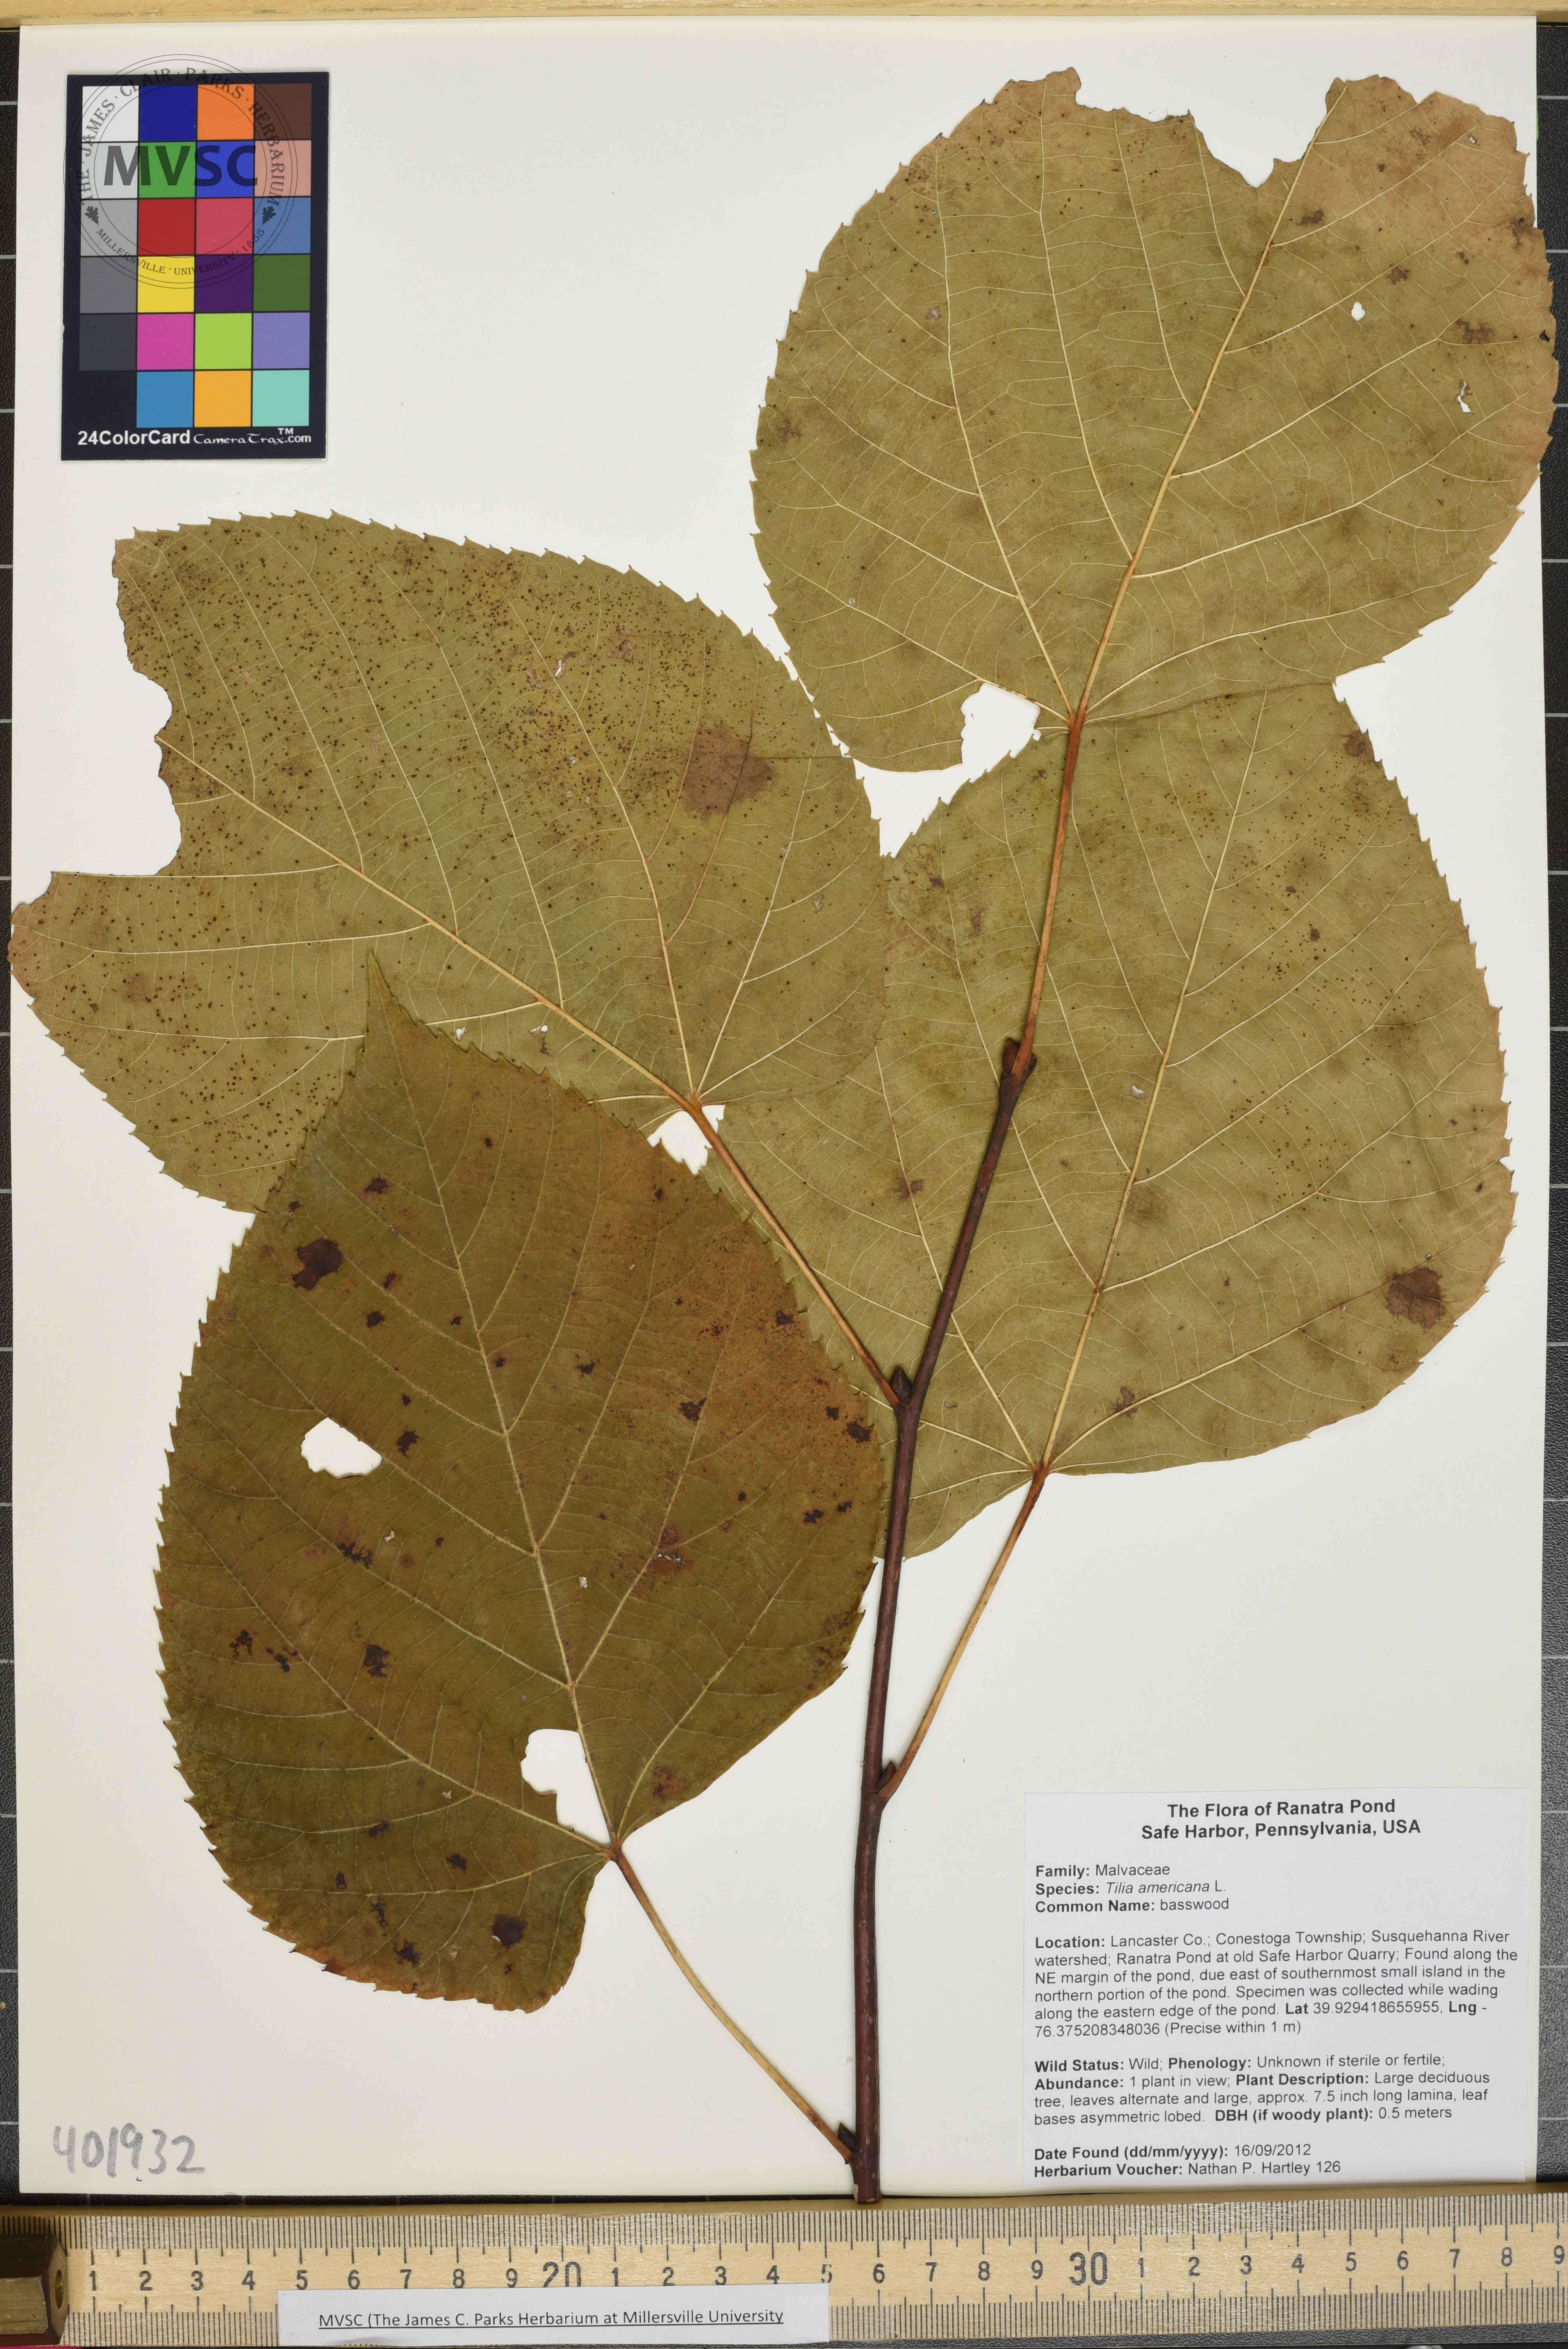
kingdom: Plantae
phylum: Tracheophyta
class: Magnoliopsida
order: Malvales
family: Malvaceae
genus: Tilia
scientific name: Tilia americana
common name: Basswood
